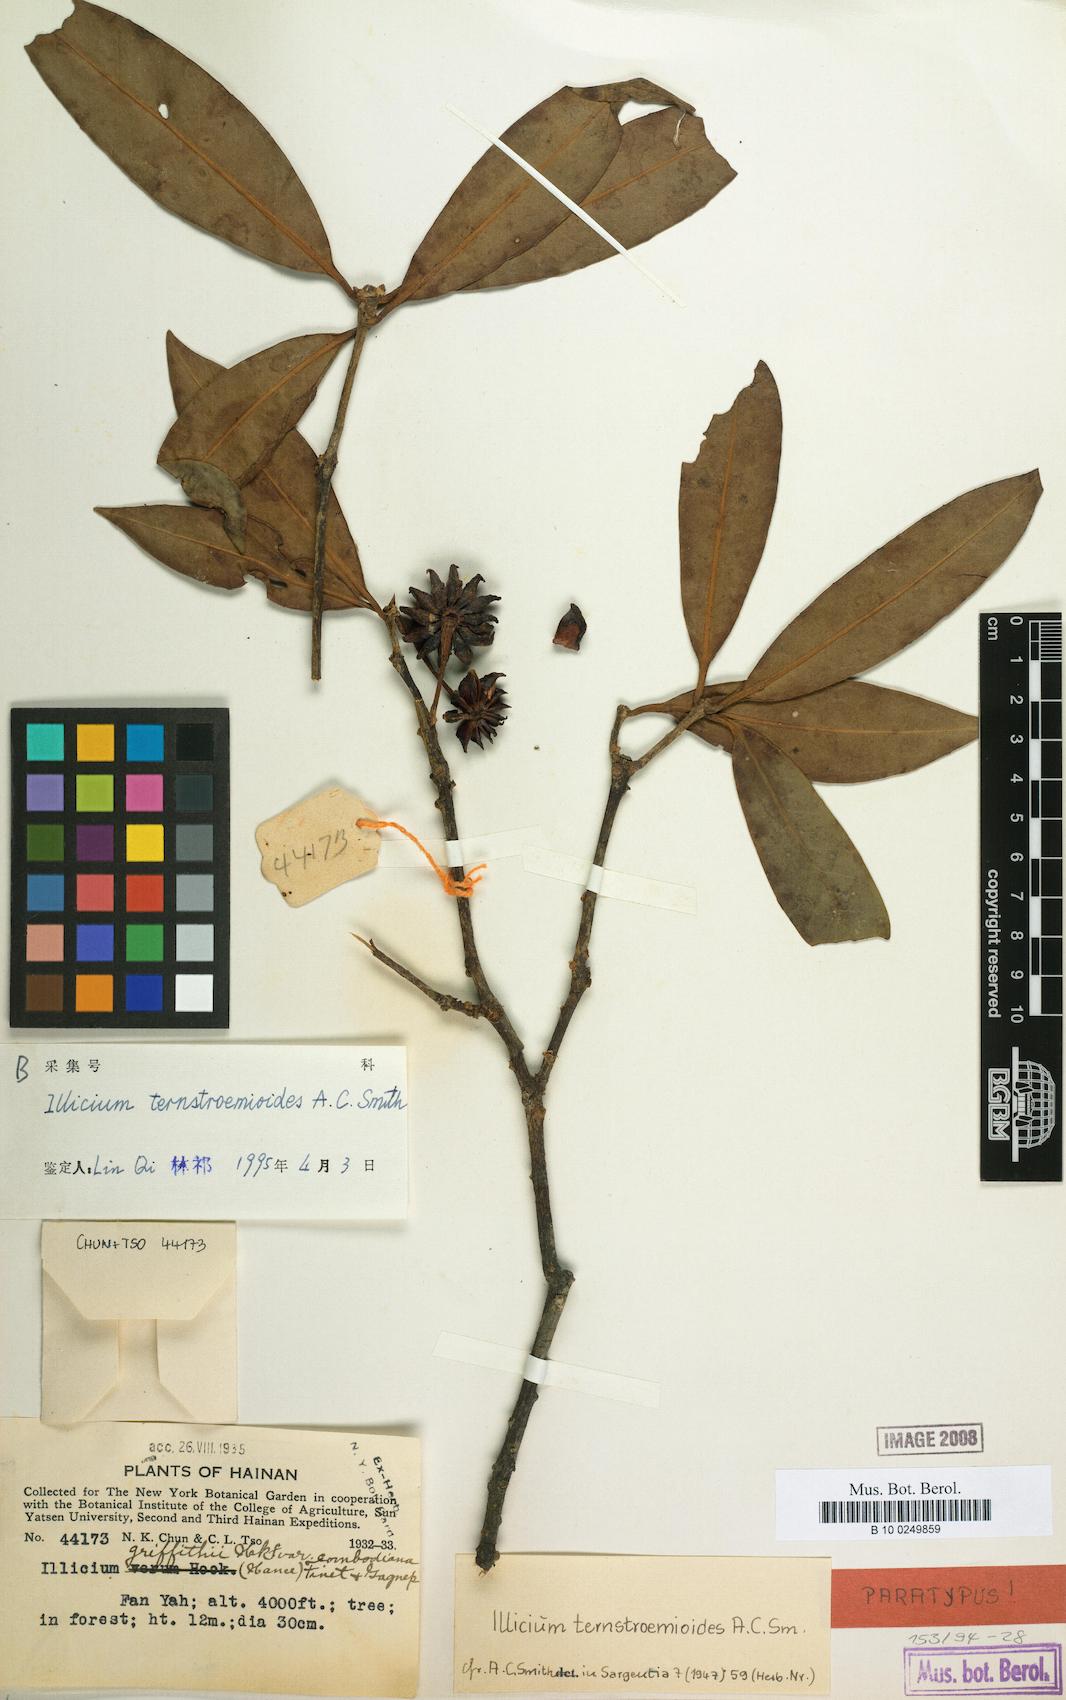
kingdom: Plantae
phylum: Tracheophyta
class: Magnoliopsida
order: Austrobaileyales
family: Schisandraceae
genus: Illicium
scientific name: Illicium ternstroemioides
